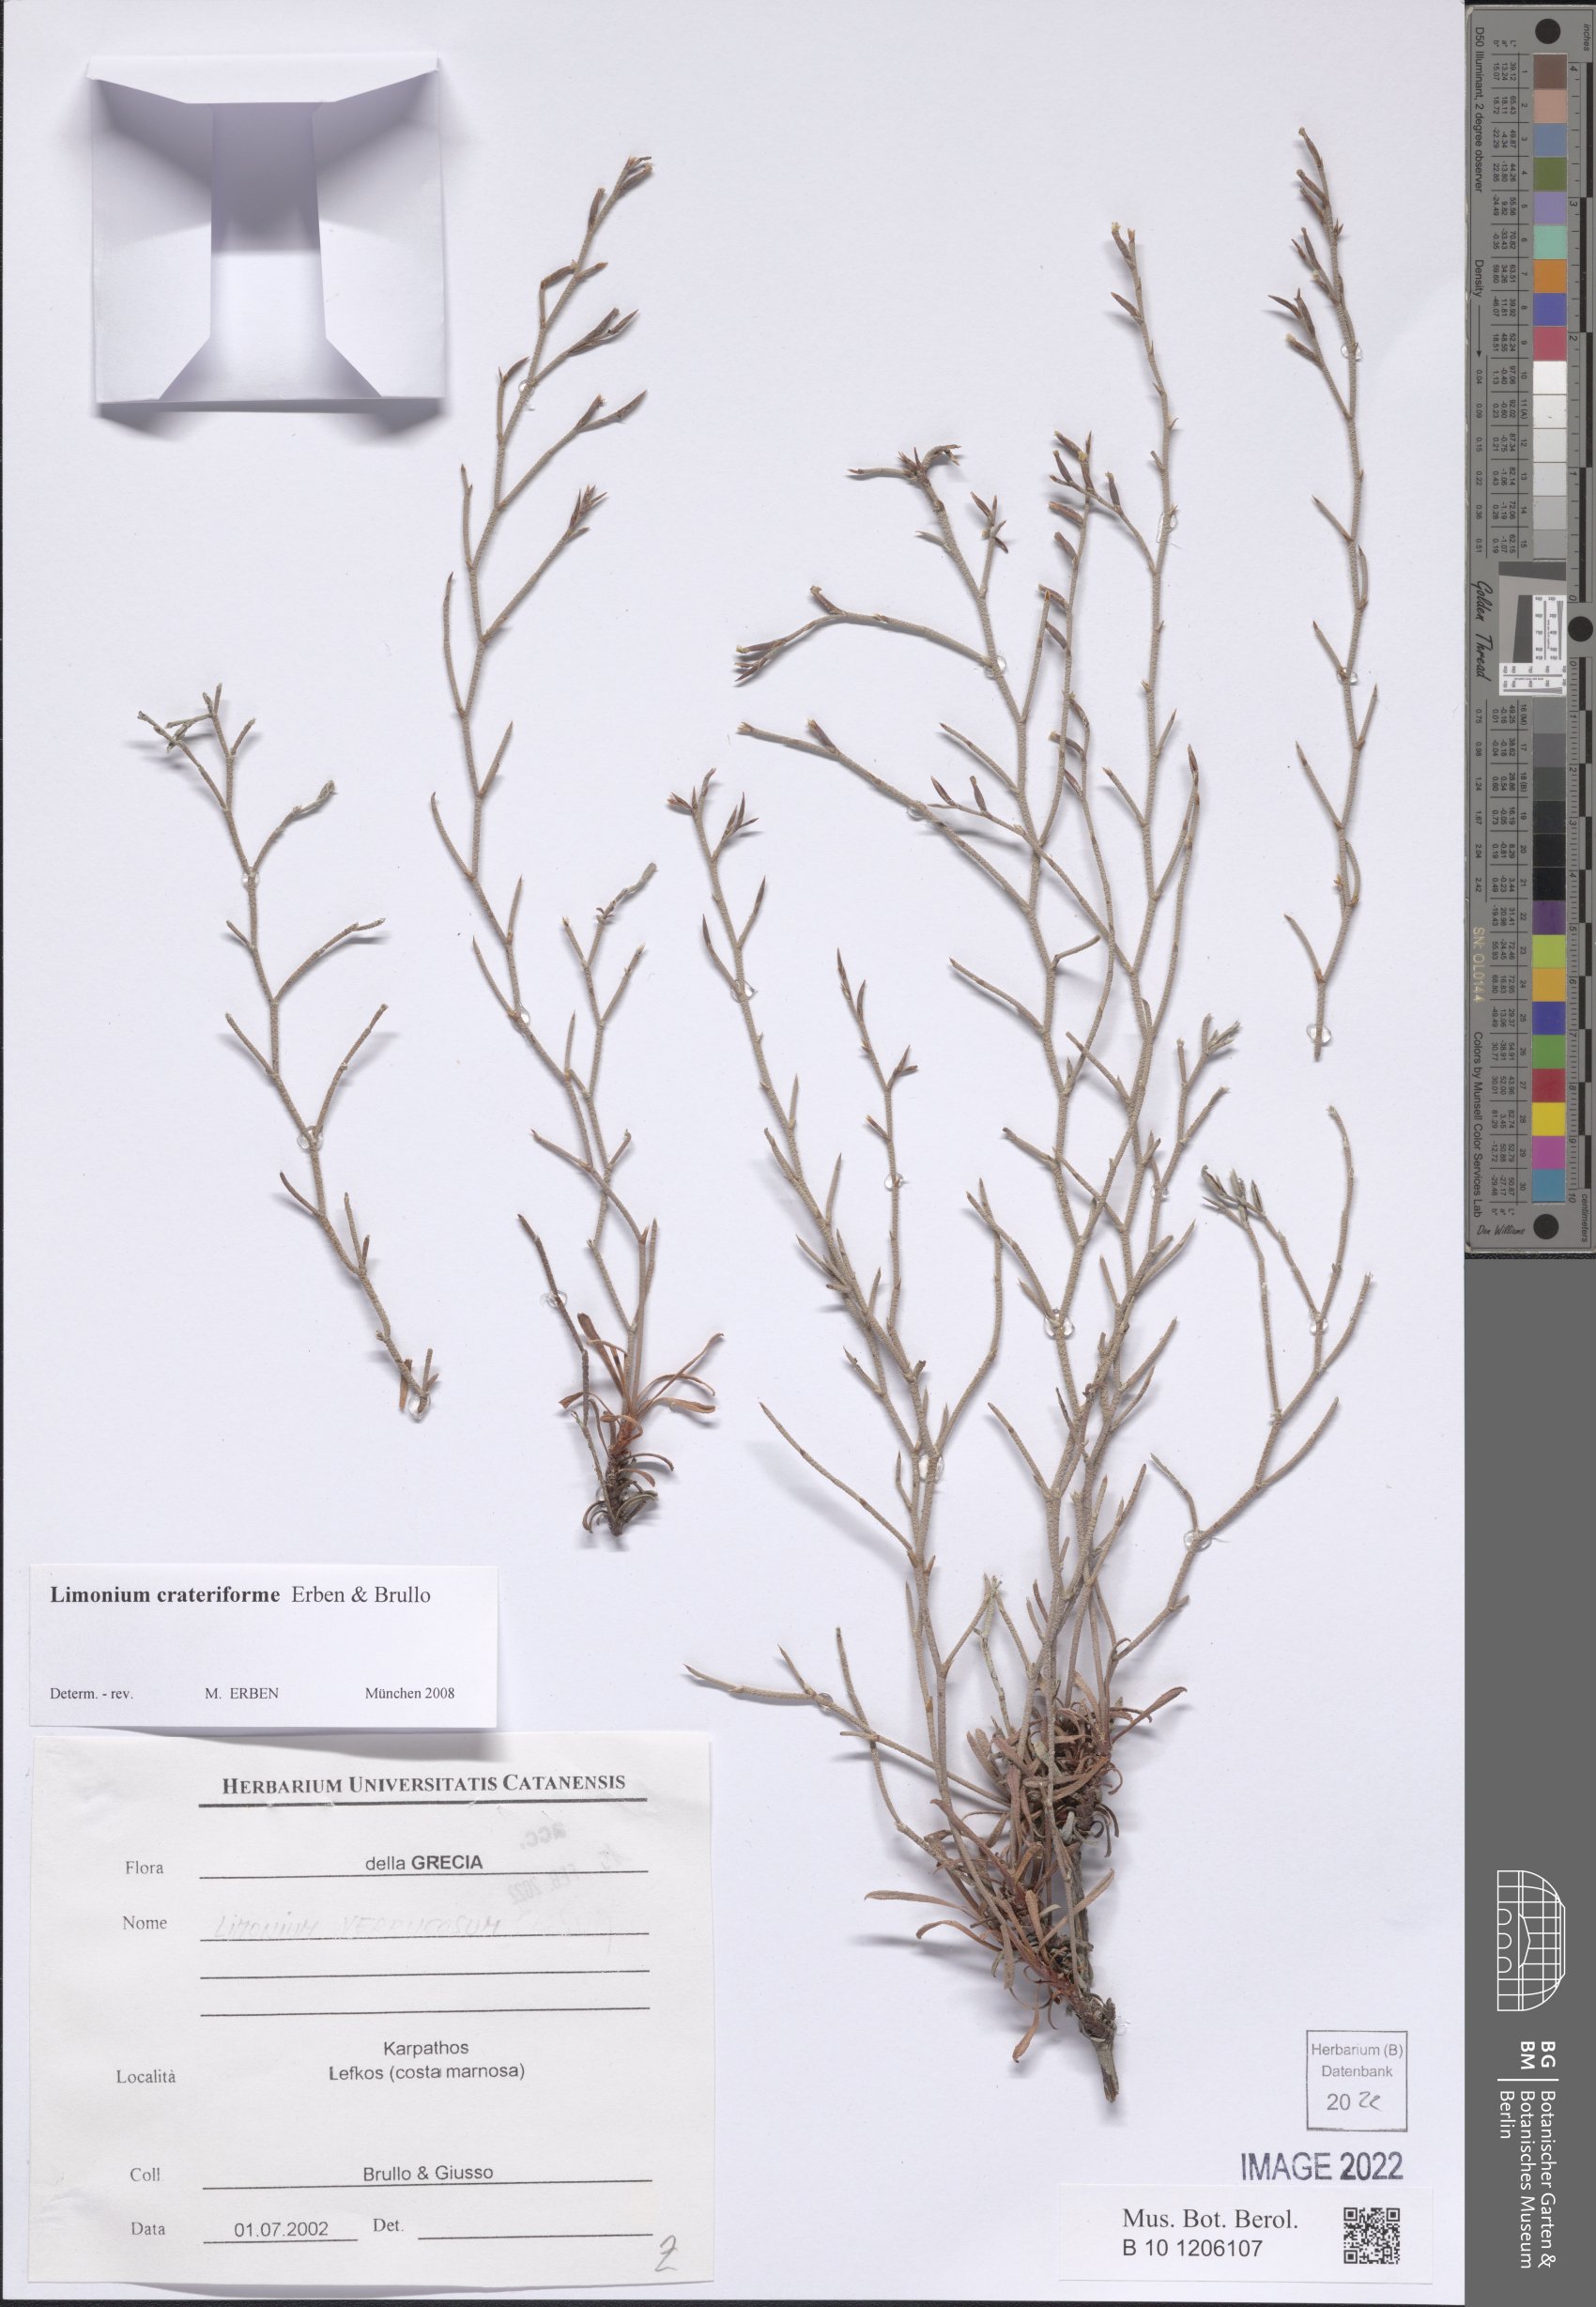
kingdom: Plantae
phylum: Tracheophyta
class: Magnoliopsida
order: Caryophyllales
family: Plumbaginaceae
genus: Limonium
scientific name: Limonium crateriforme
